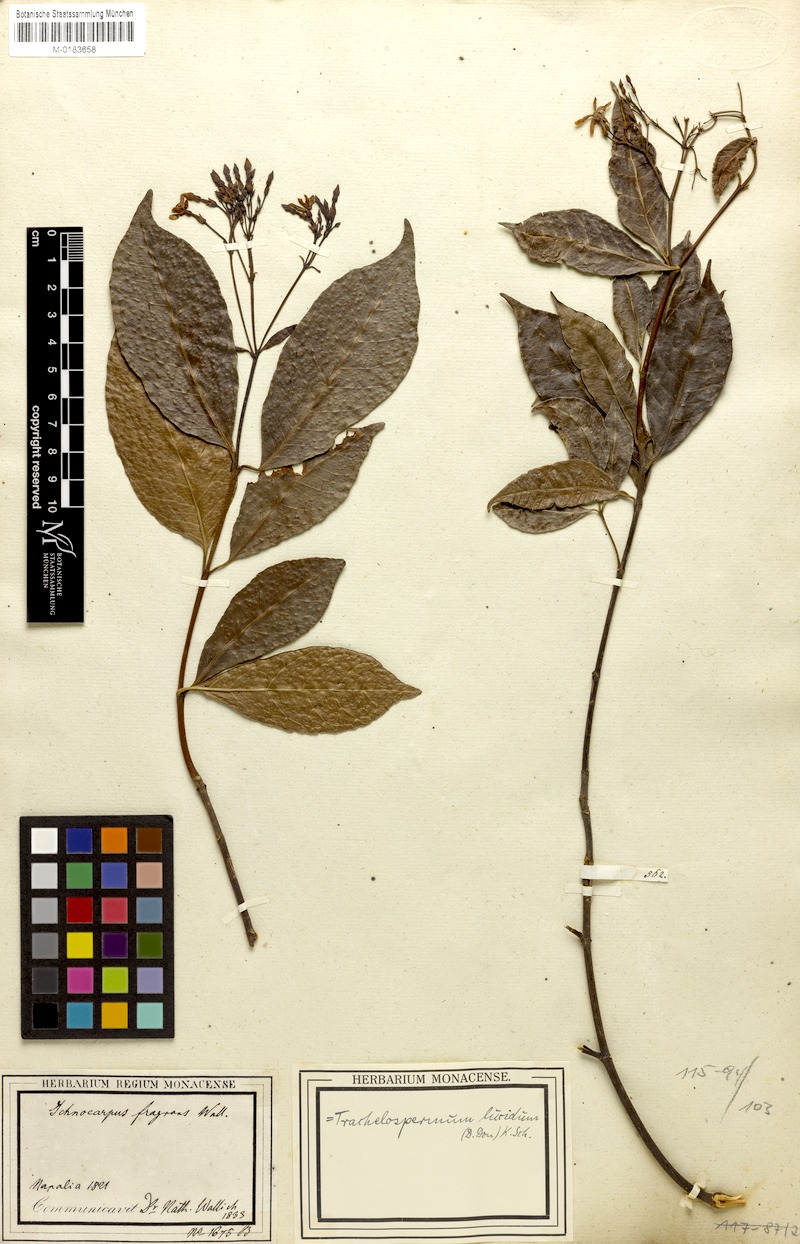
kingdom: Plantae
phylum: Tracheophyta
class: Magnoliopsida
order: Gentianales
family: Apocynaceae
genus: Trachelospermum
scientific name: Trachelospermum lucidum
